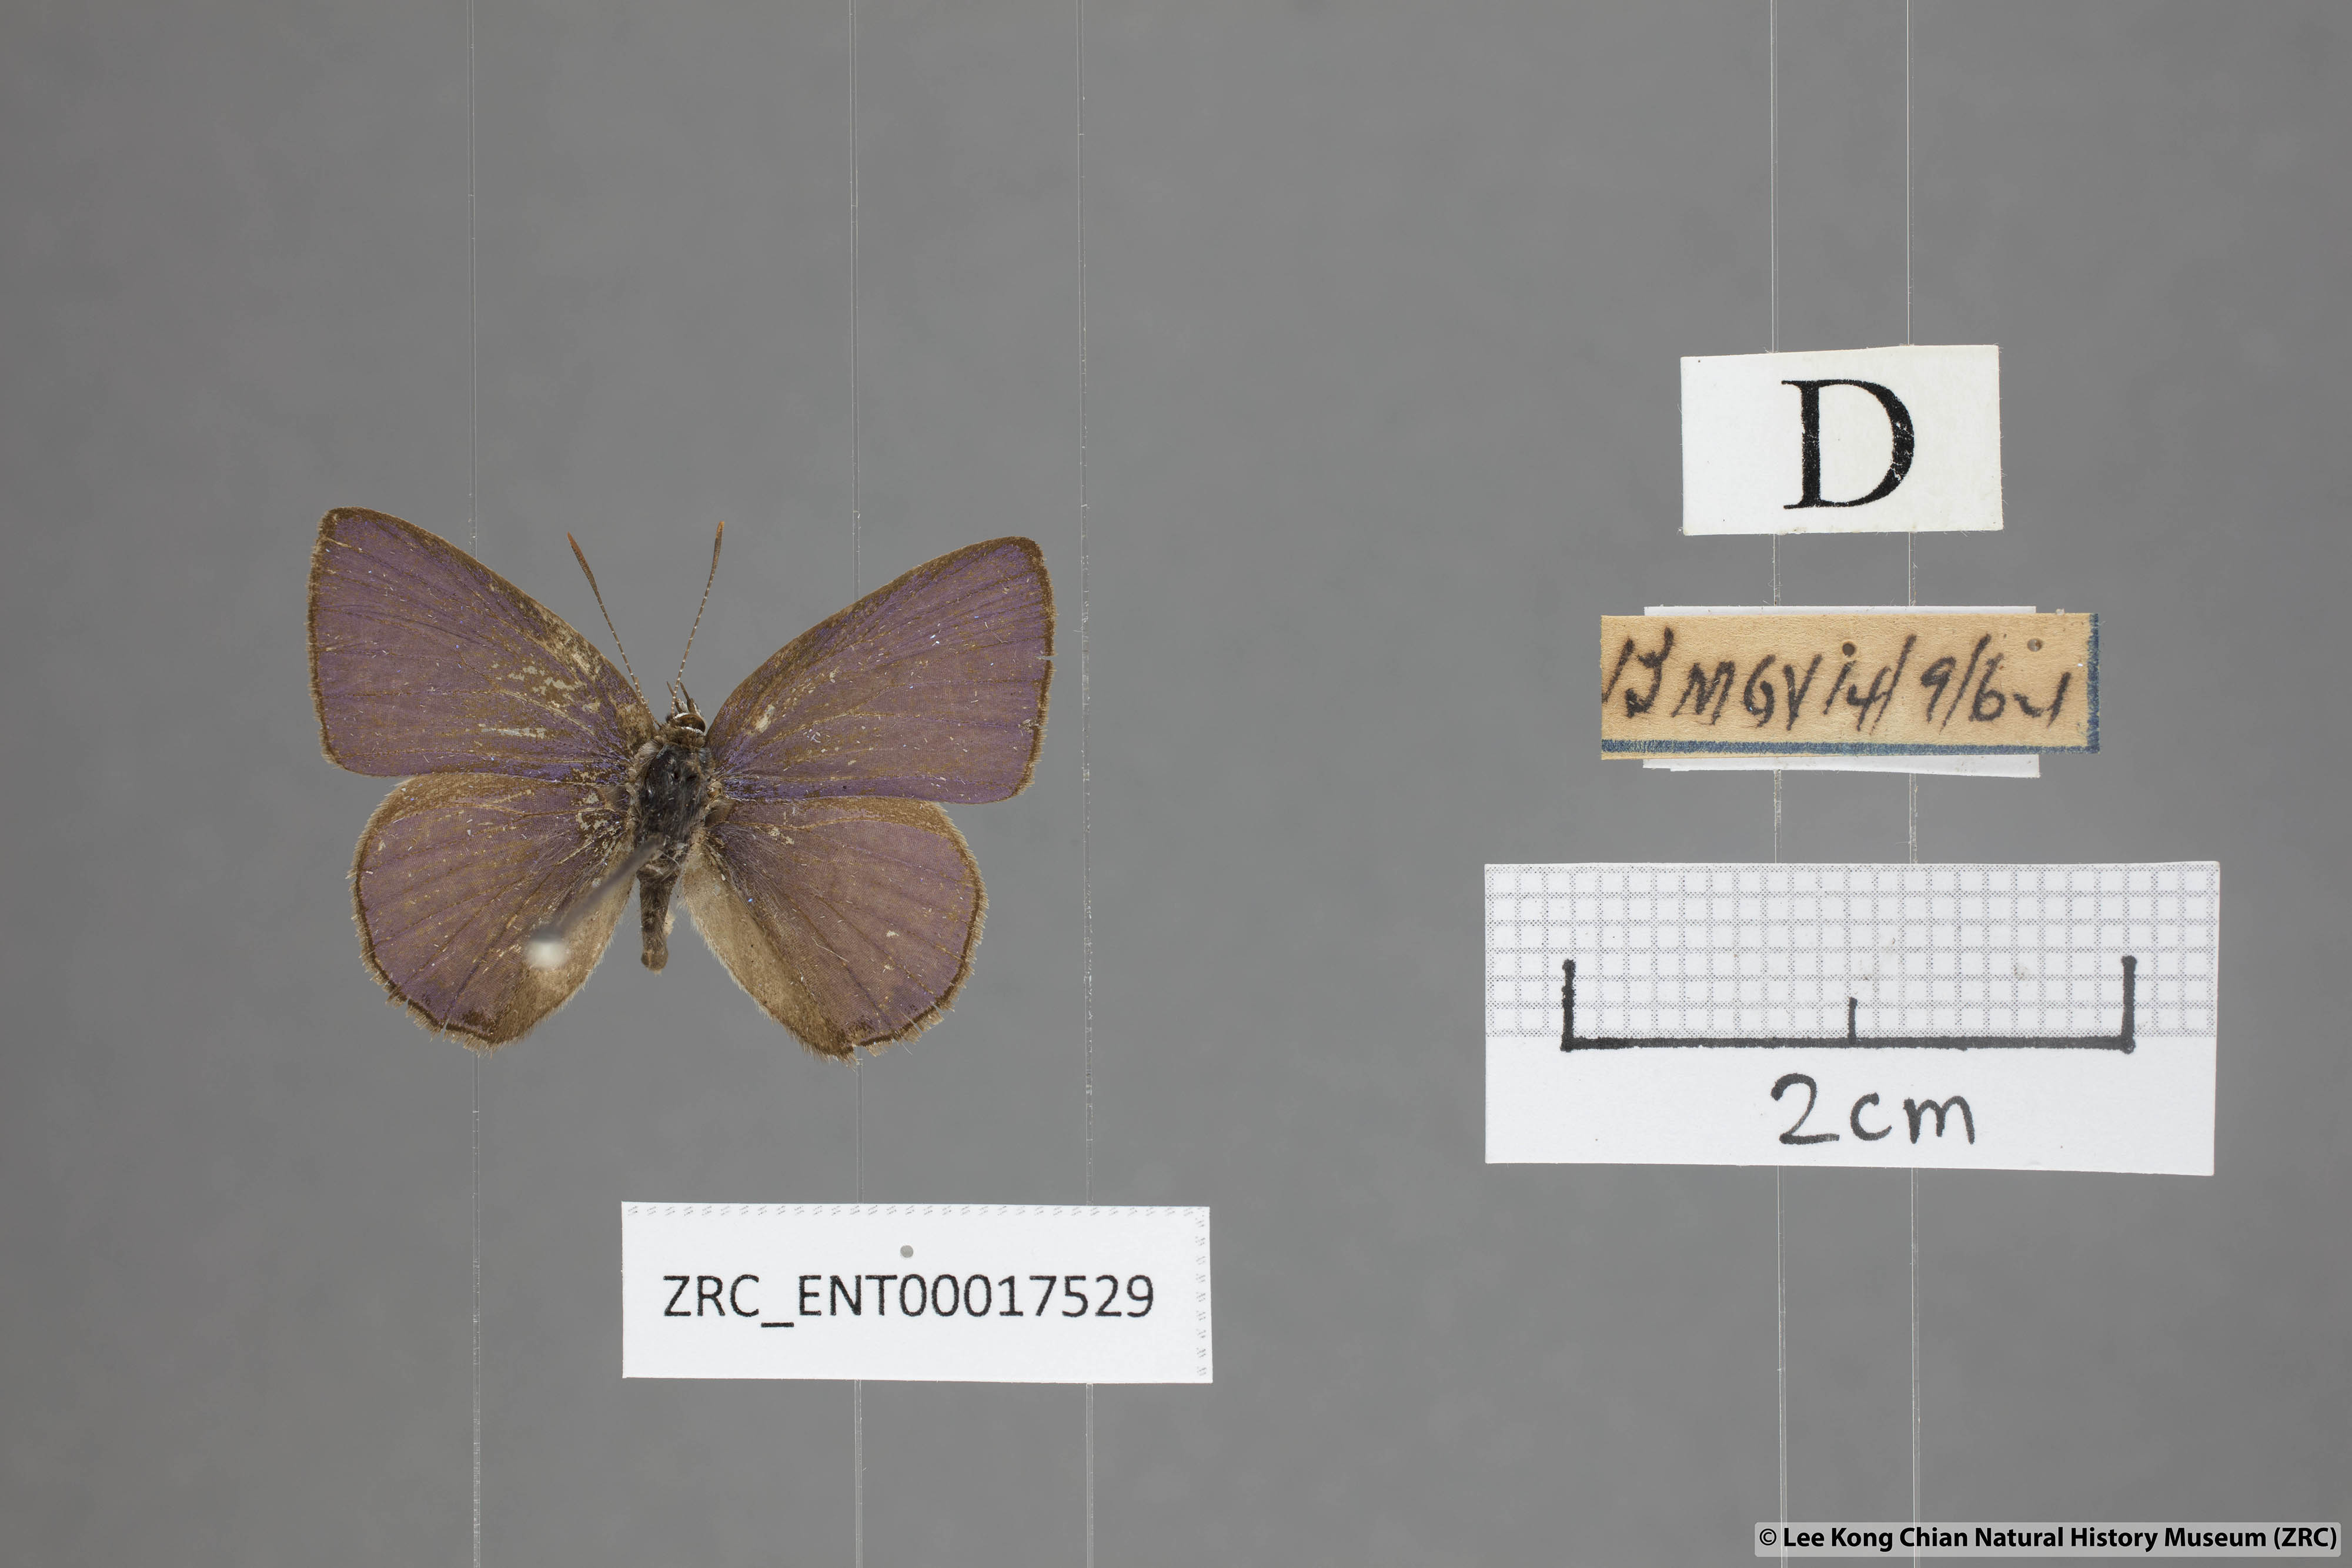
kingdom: Animalia
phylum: Arthropoda
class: Insecta
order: Lepidoptera
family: Lycaenidae
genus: Anthene
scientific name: Anthene emolus
